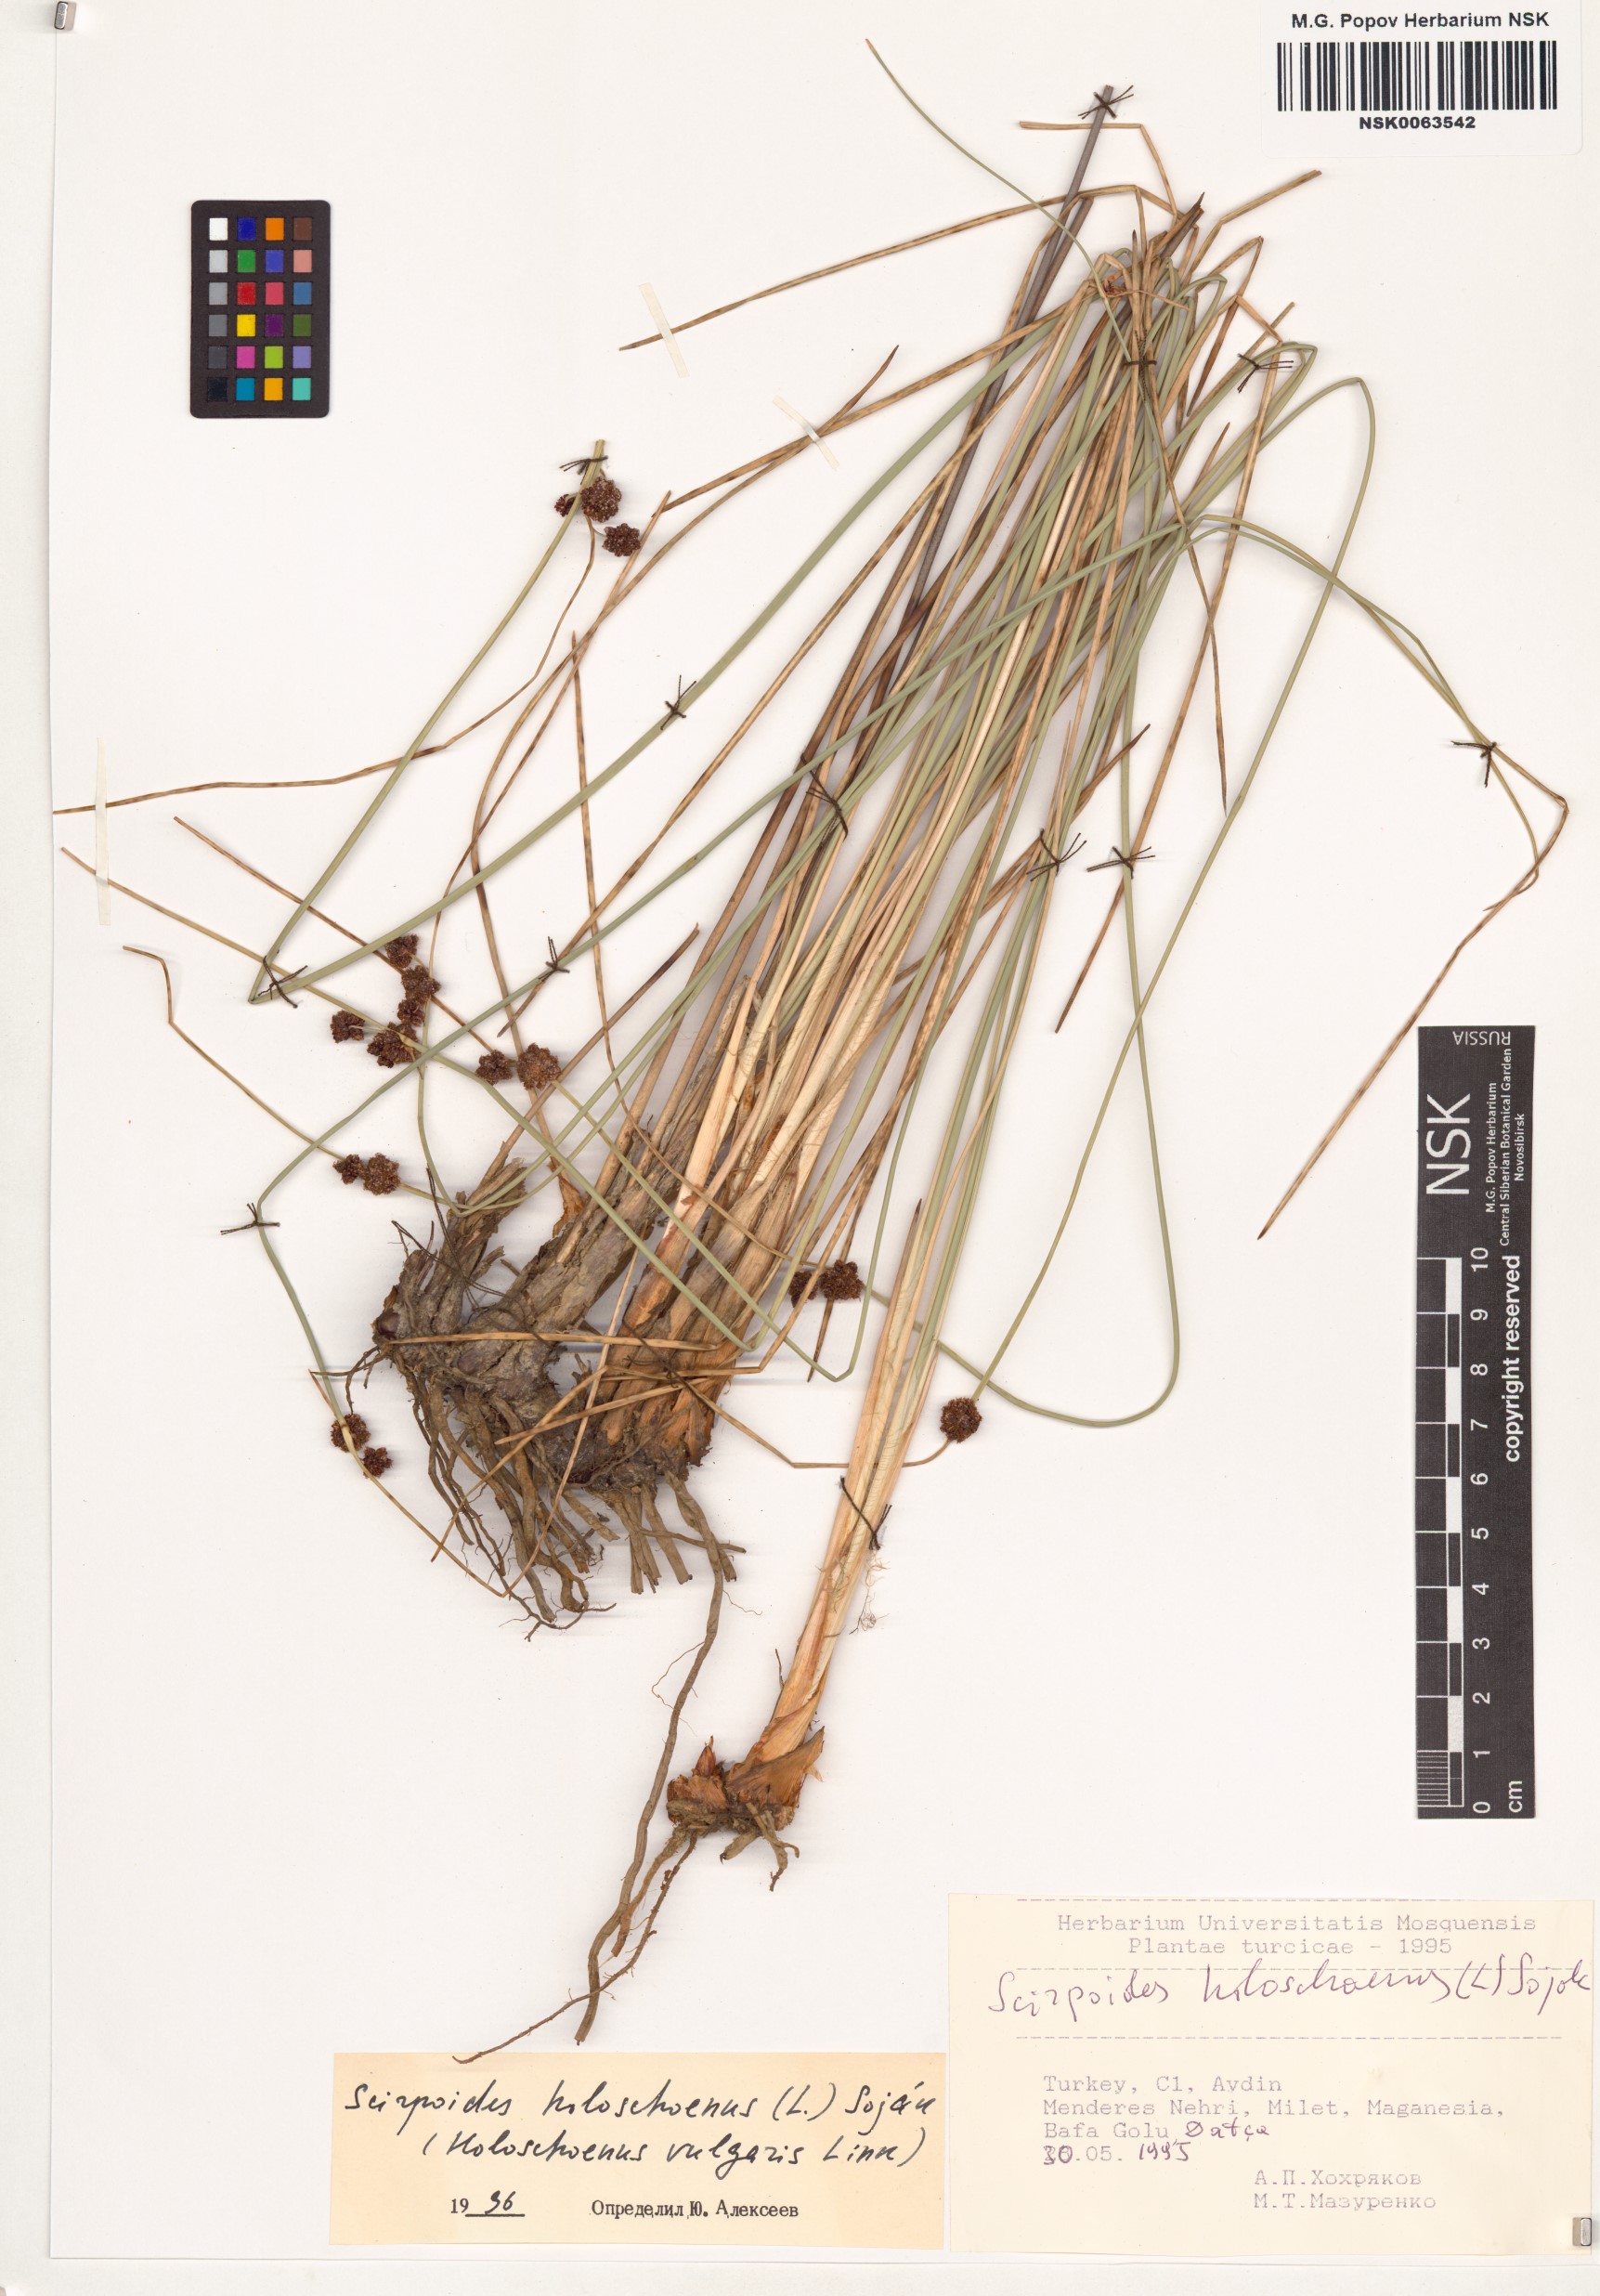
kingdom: Plantae
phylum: Tracheophyta
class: Liliopsida
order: Poales
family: Cyperaceae
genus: Scirpoides
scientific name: Scirpoides holoschoenus
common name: Round-headed club-rush
